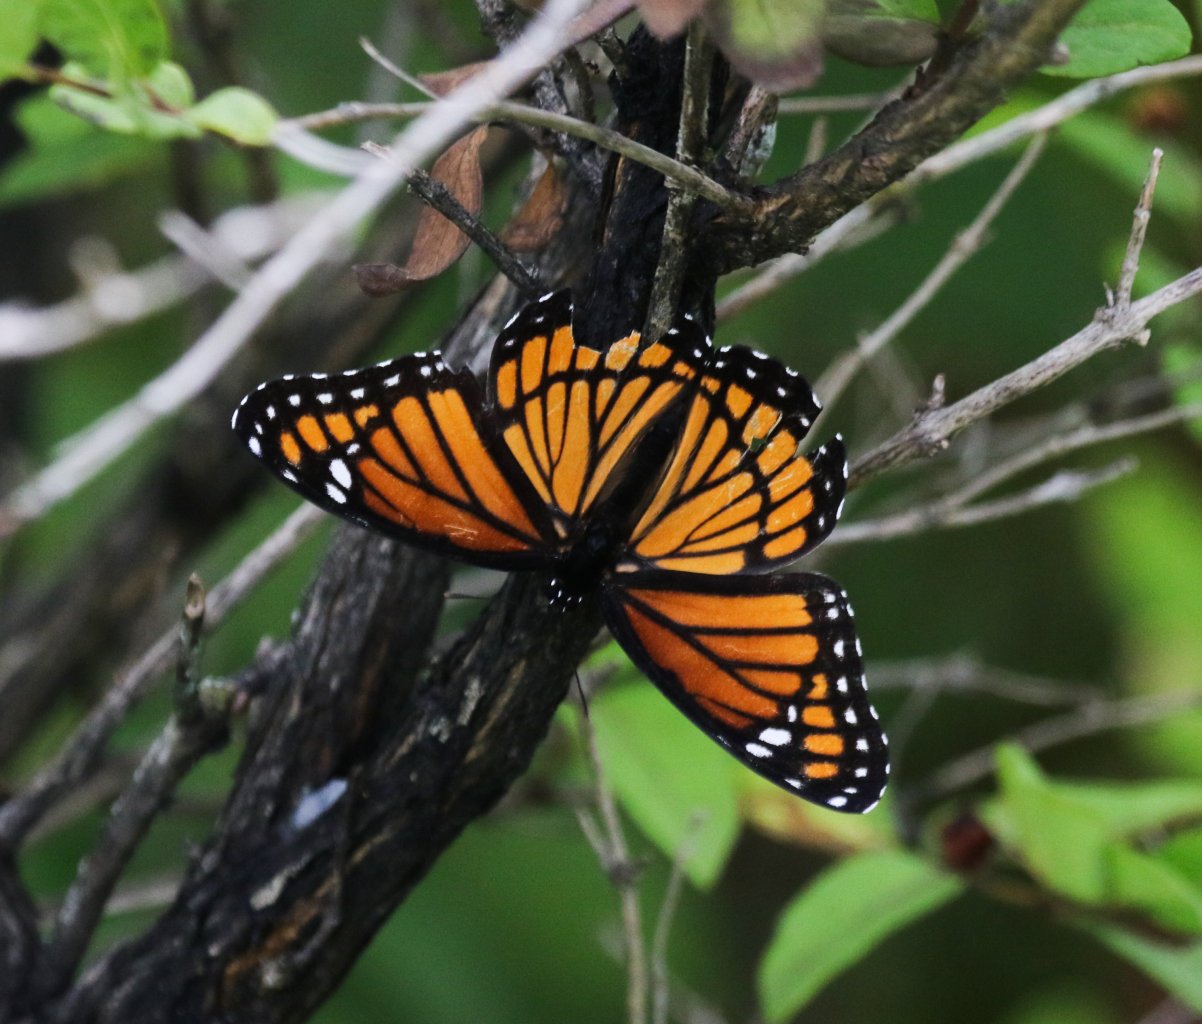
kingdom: Animalia
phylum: Arthropoda
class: Insecta
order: Lepidoptera
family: Nymphalidae
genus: Limenitis
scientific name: Limenitis archippus
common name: Viceroy
